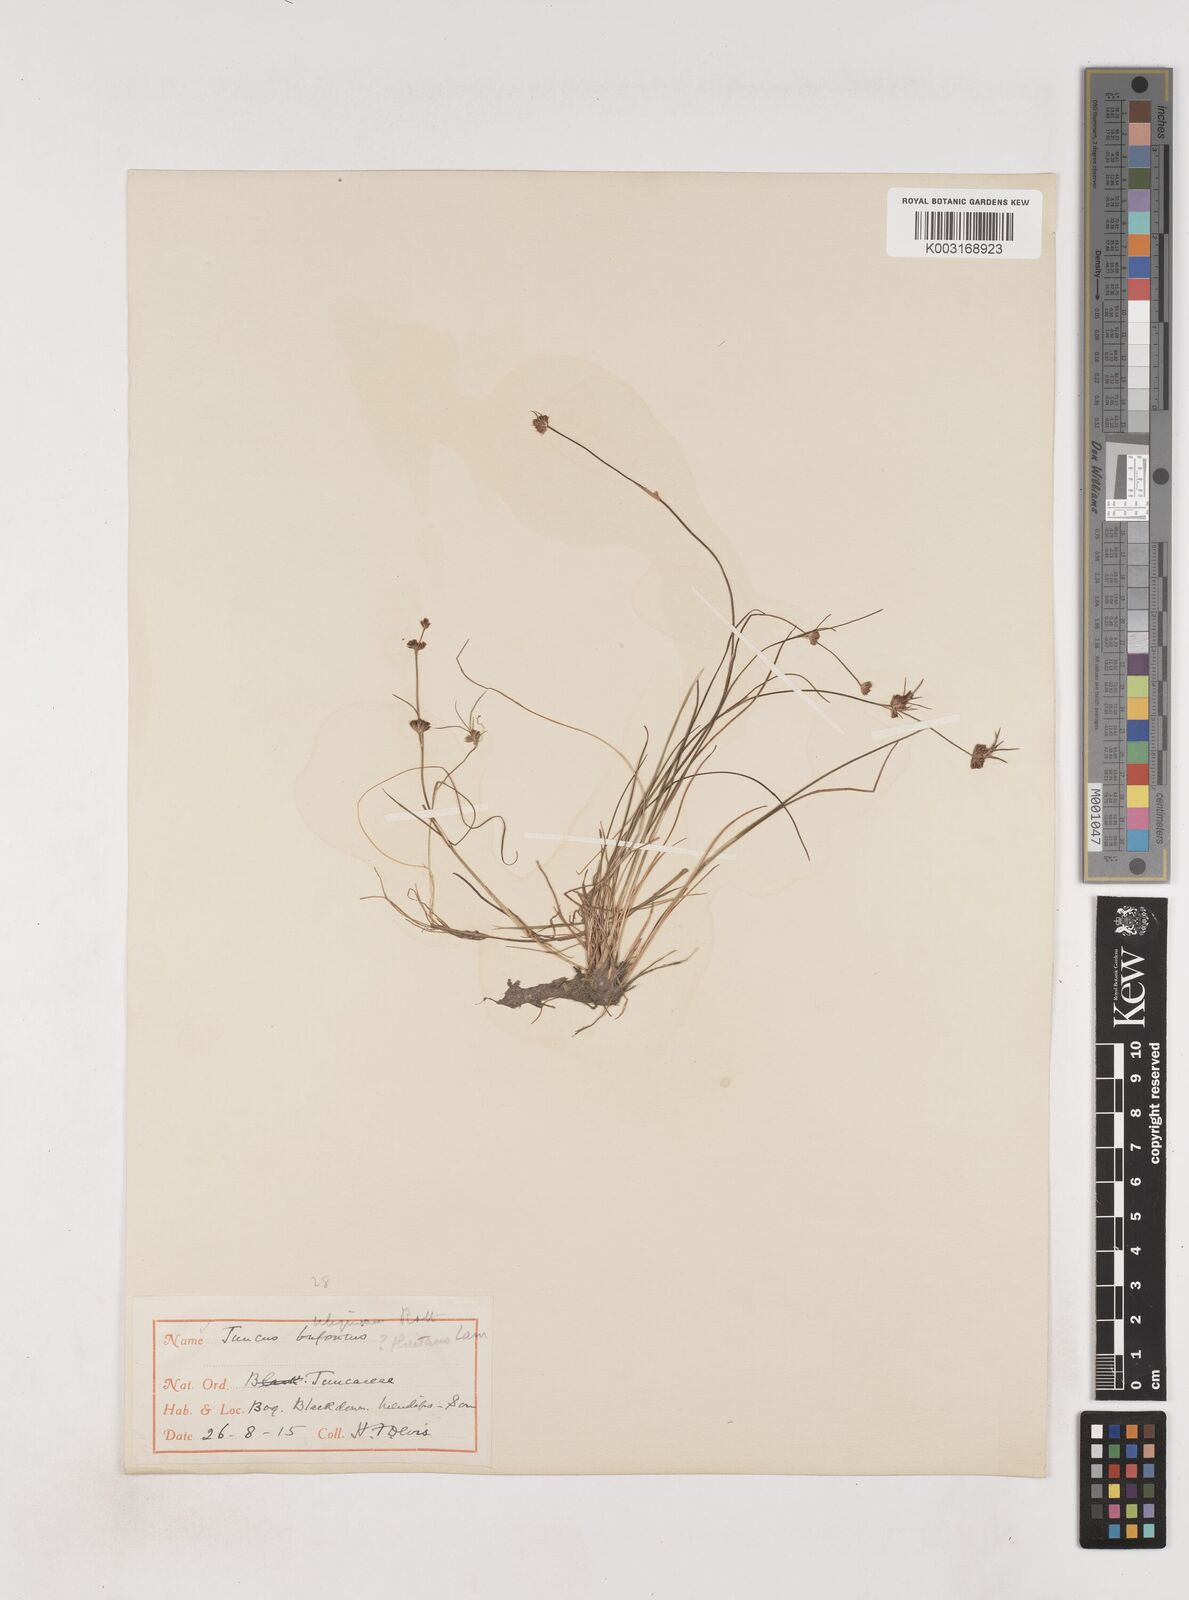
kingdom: Plantae
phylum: Tracheophyta
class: Liliopsida
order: Poales
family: Juncaceae
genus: Juncus
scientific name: Juncus bulbosus
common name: Bulbous rush
